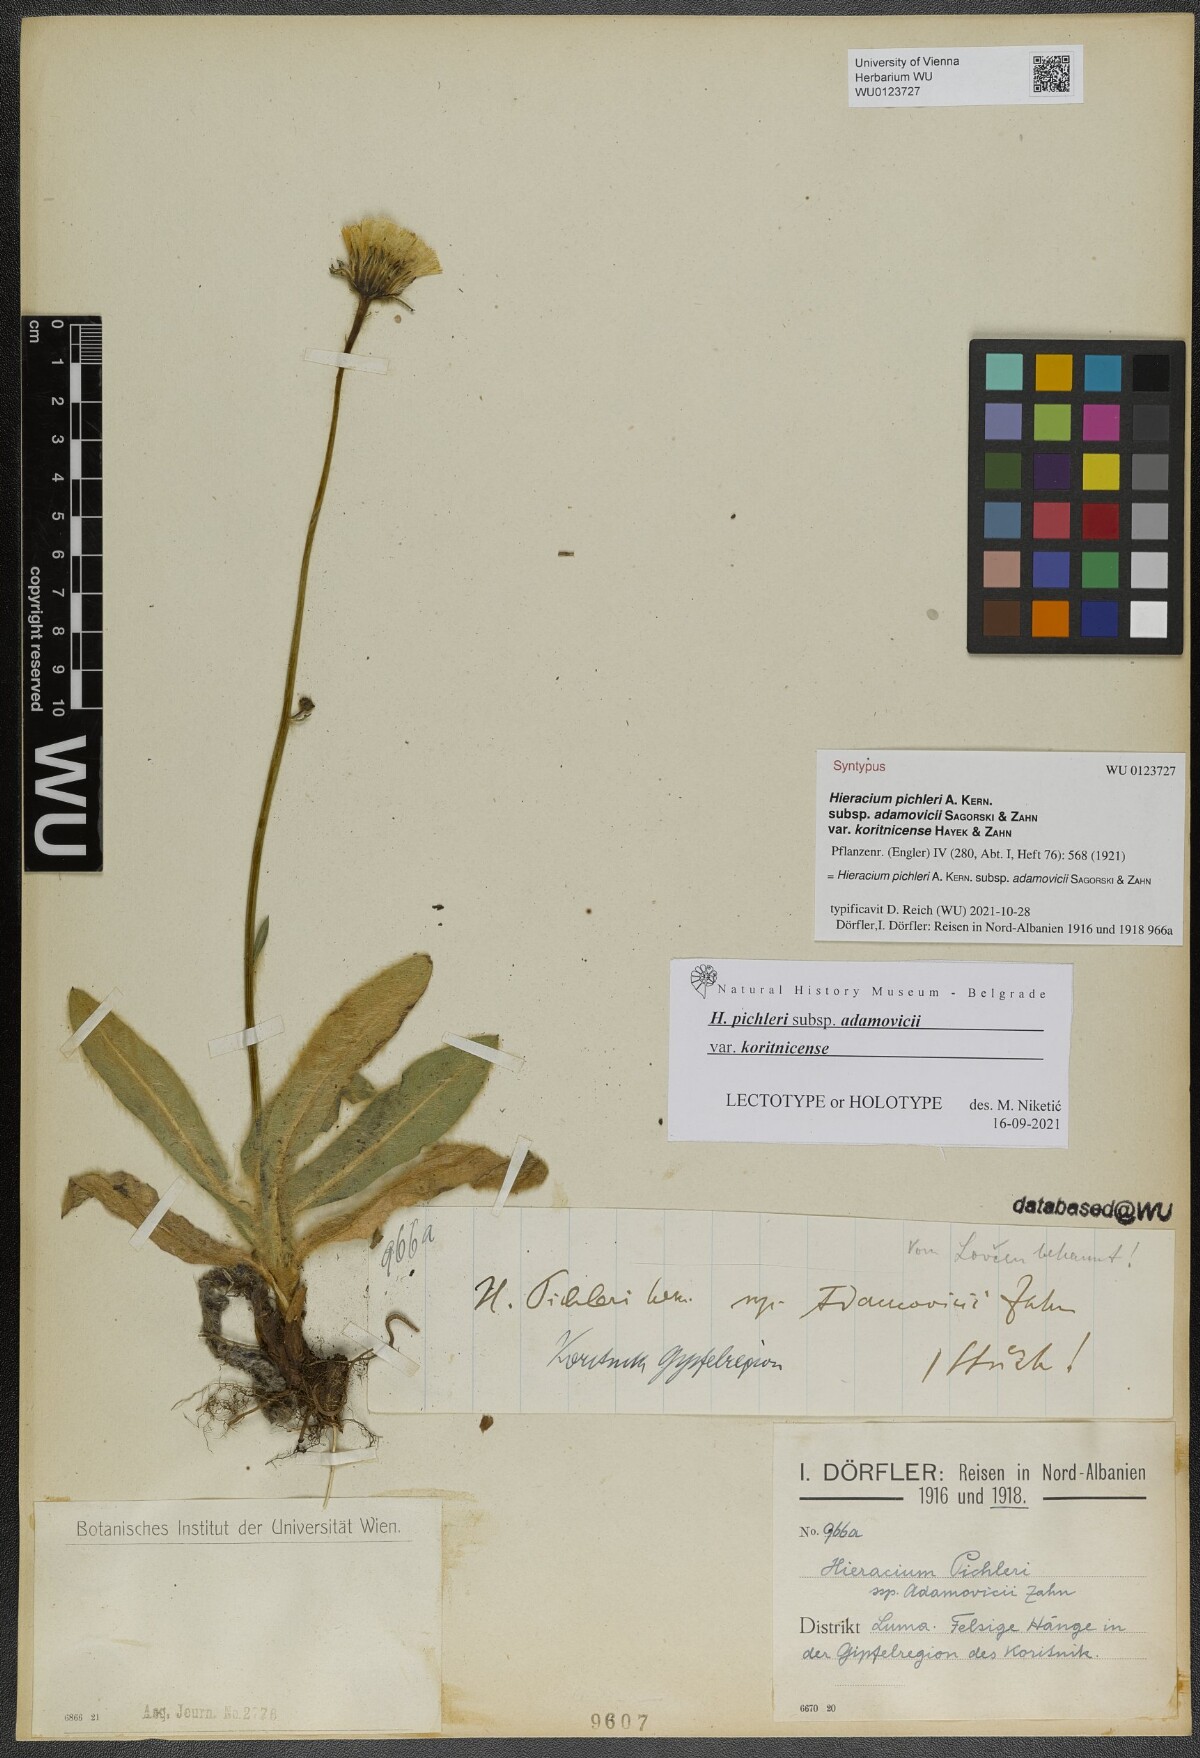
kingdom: Plantae
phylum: Tracheophyta
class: Magnoliopsida
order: Asterales
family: Asteraceae
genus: Hieracium
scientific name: Hieracium pichleri
